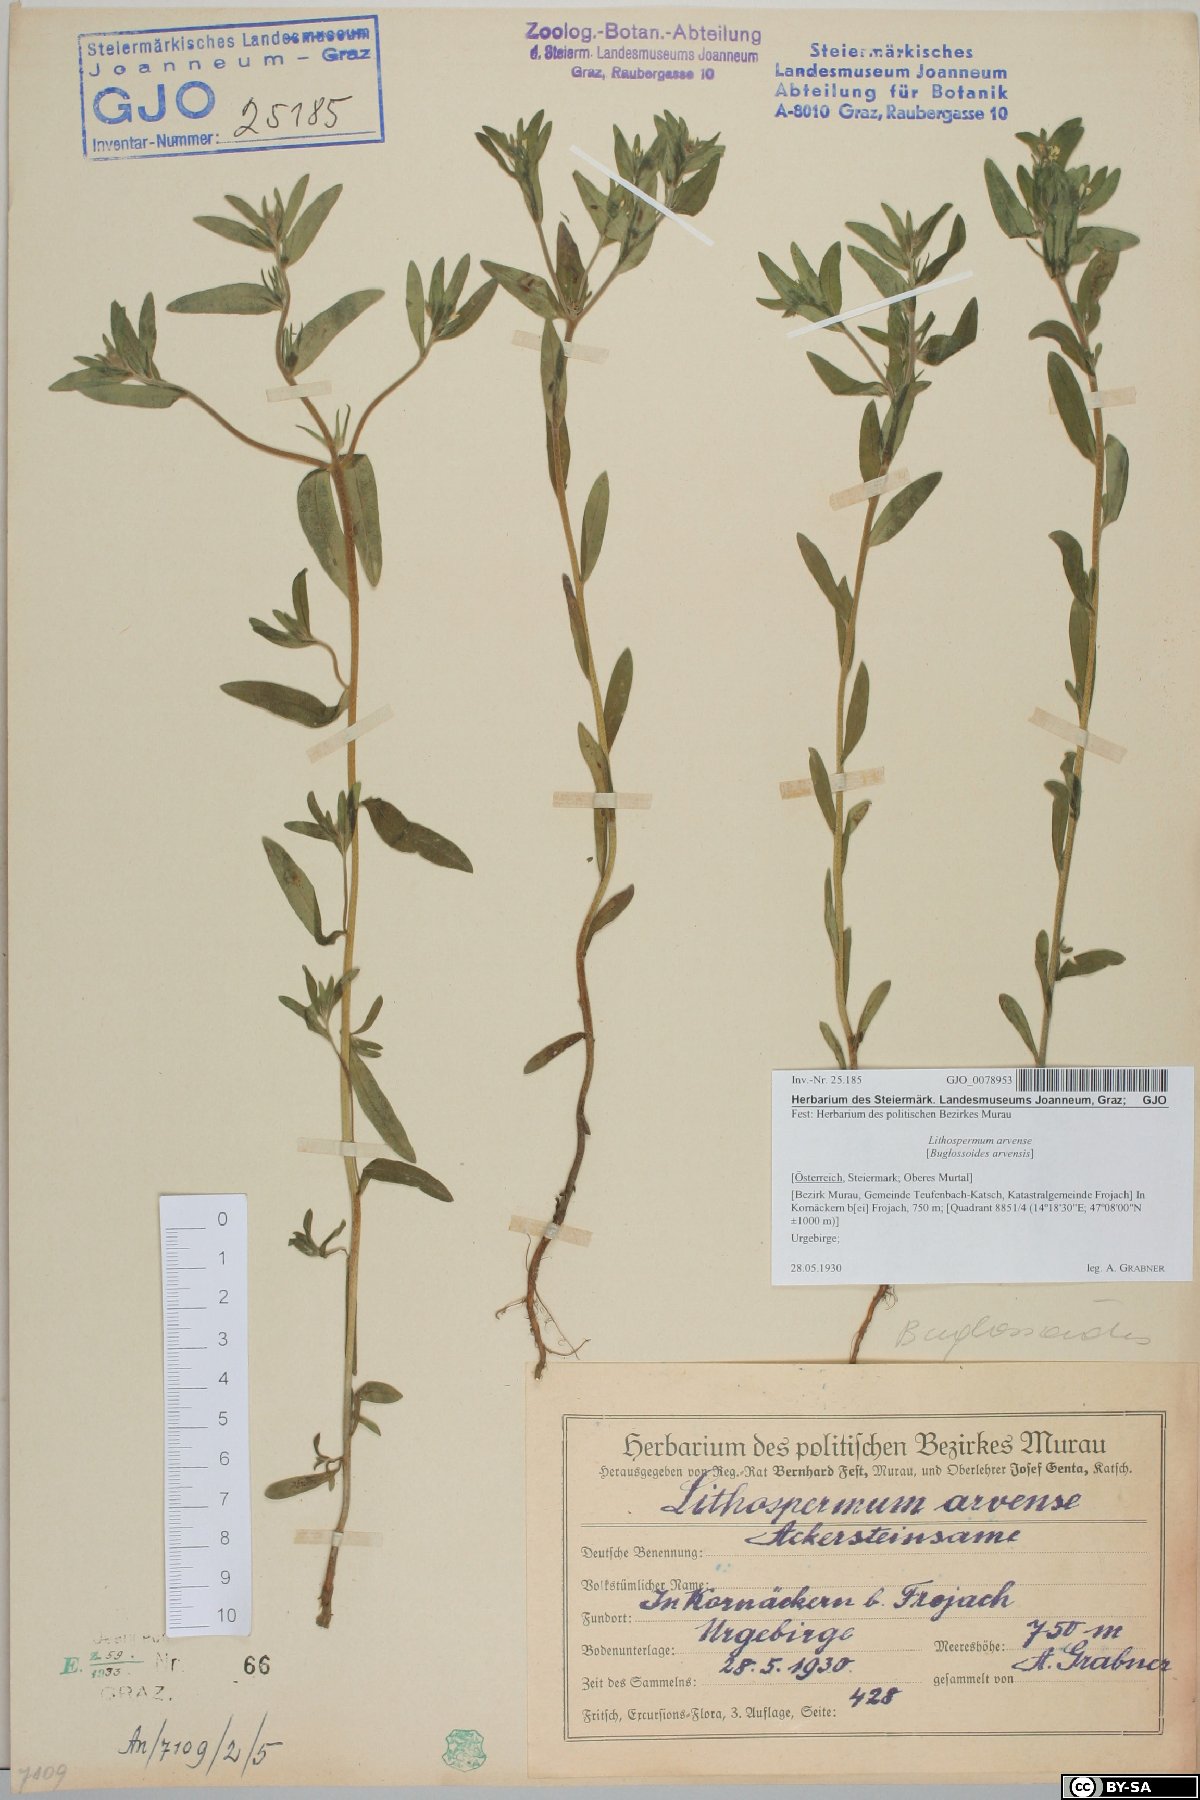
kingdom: Plantae
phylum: Tracheophyta
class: Magnoliopsida
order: Boraginales
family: Boraginaceae
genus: Buglossoides
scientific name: Buglossoides arvensis
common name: Corn gromwell
